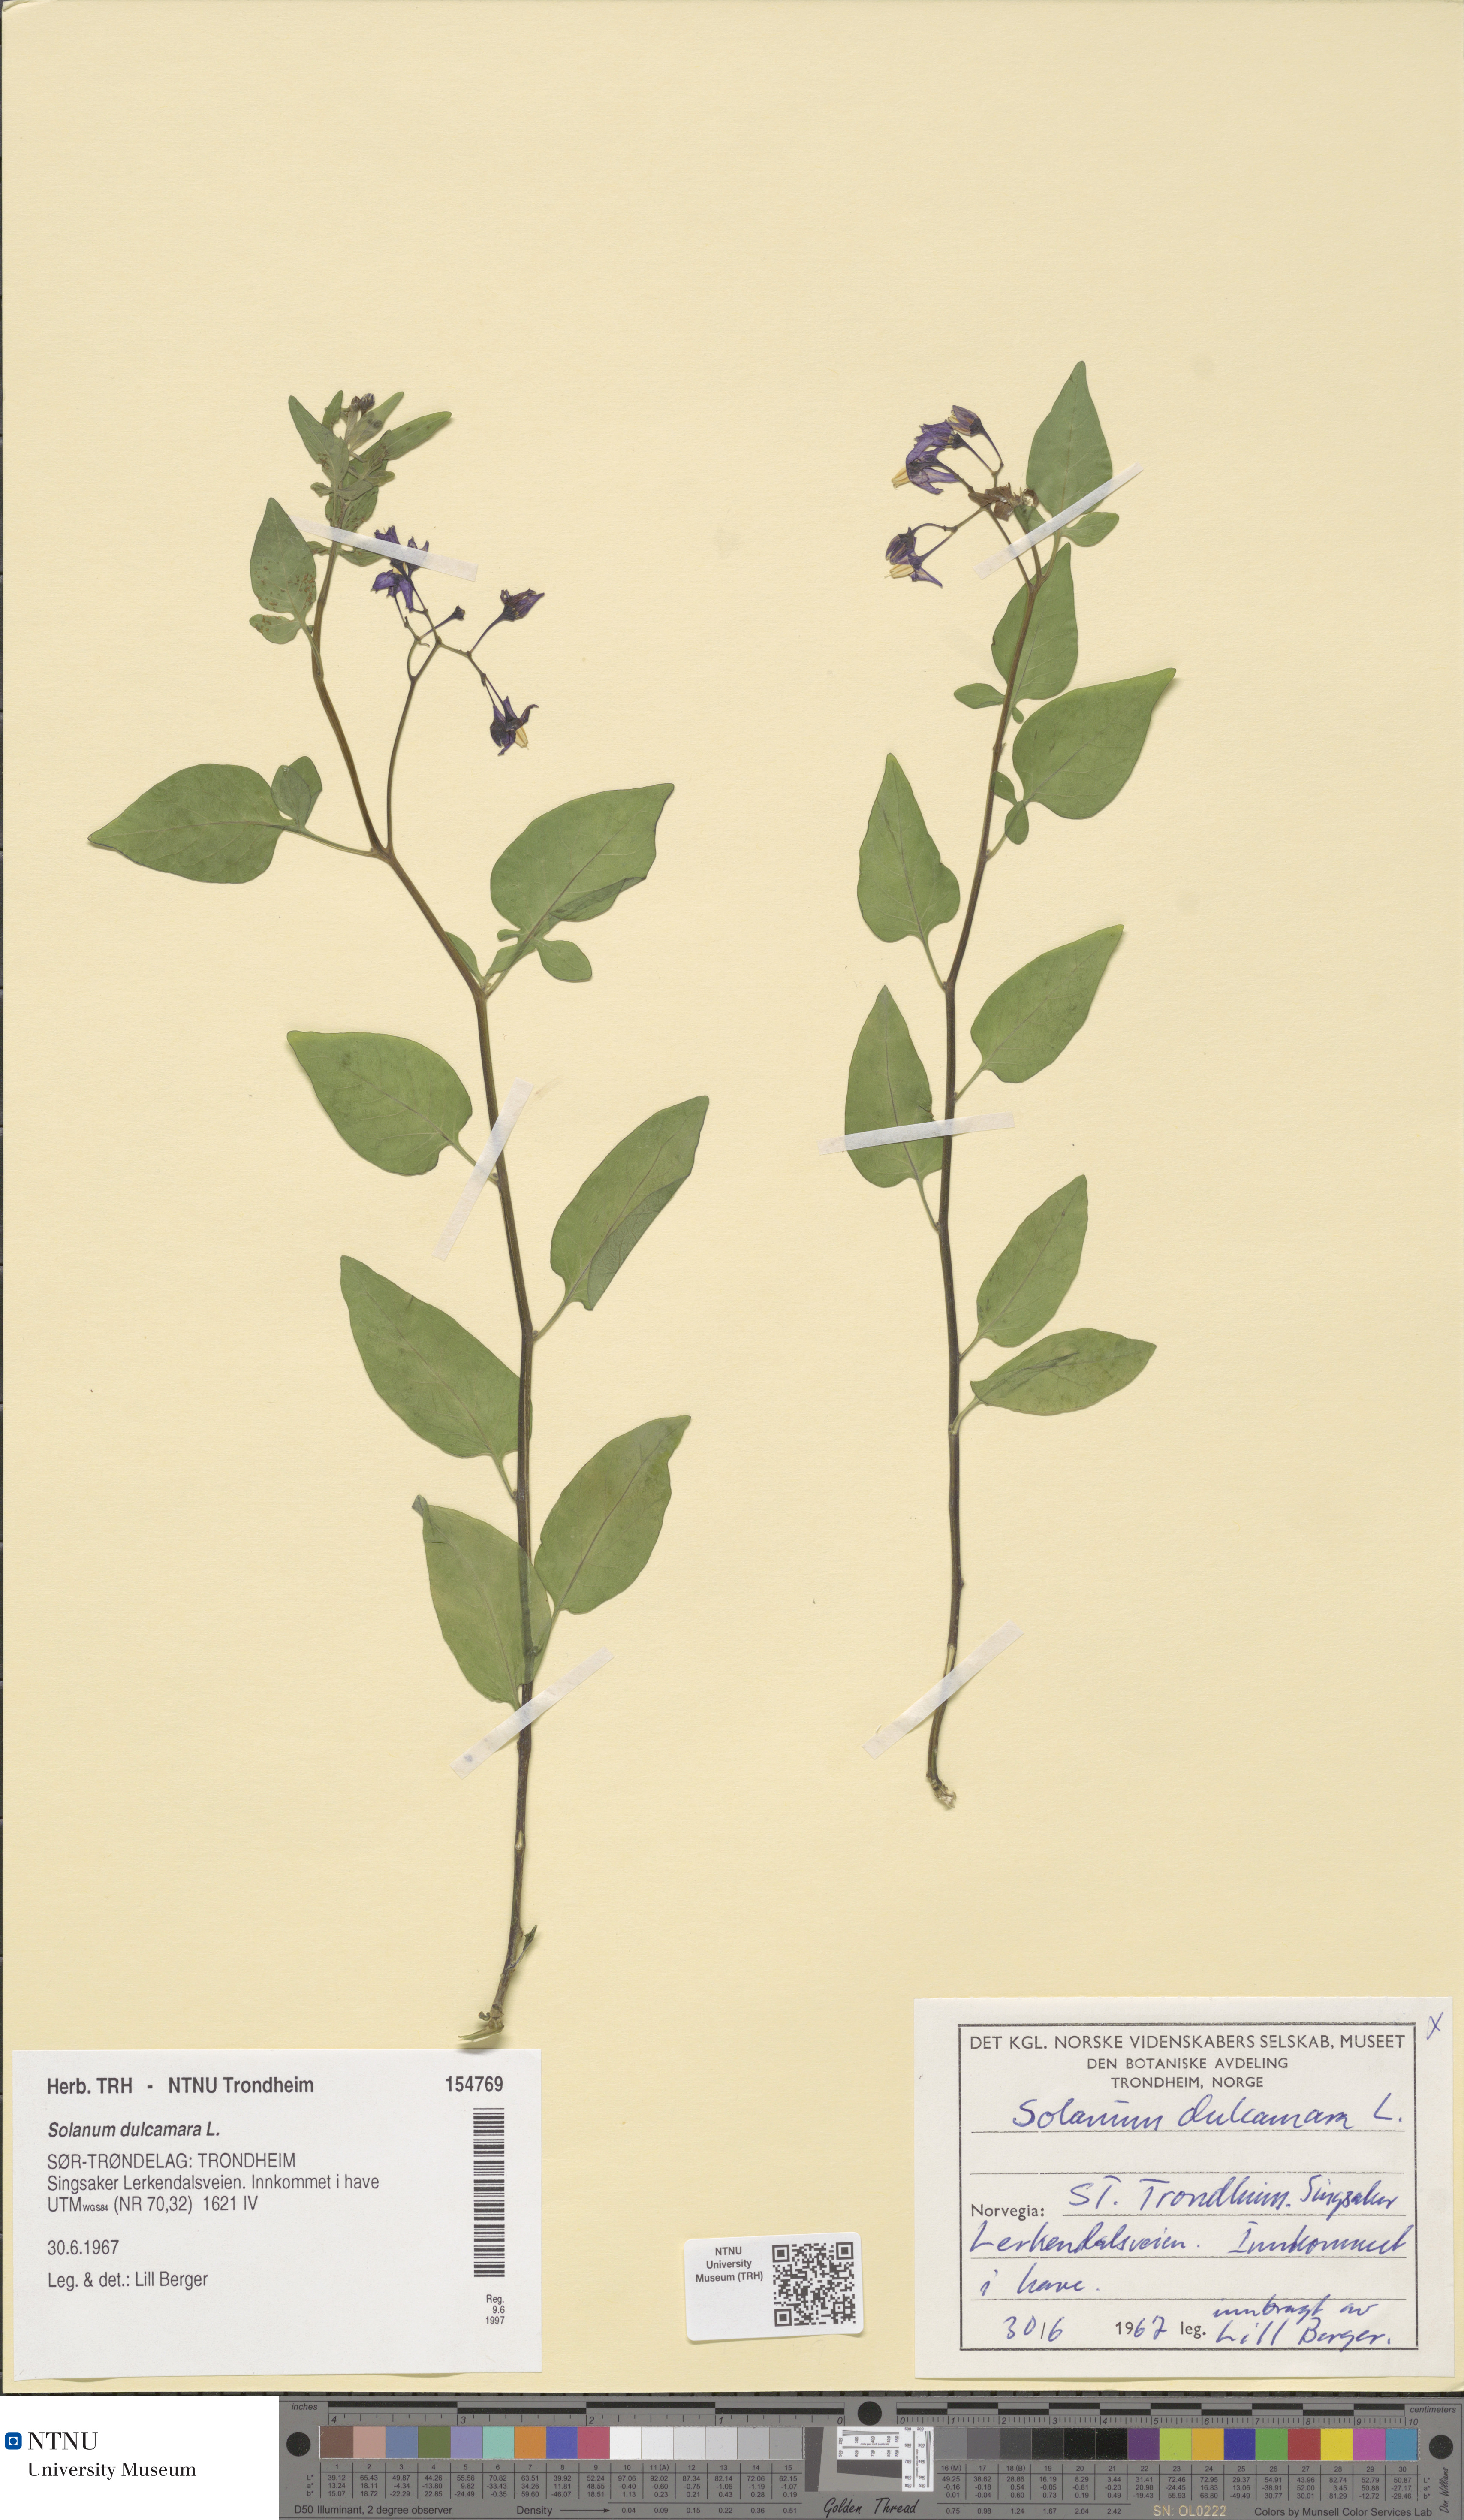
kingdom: Plantae
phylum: Tracheophyta
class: Magnoliopsida
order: Solanales
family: Solanaceae
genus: Solanum
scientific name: Solanum dulcamara
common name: Climbing nightshade
